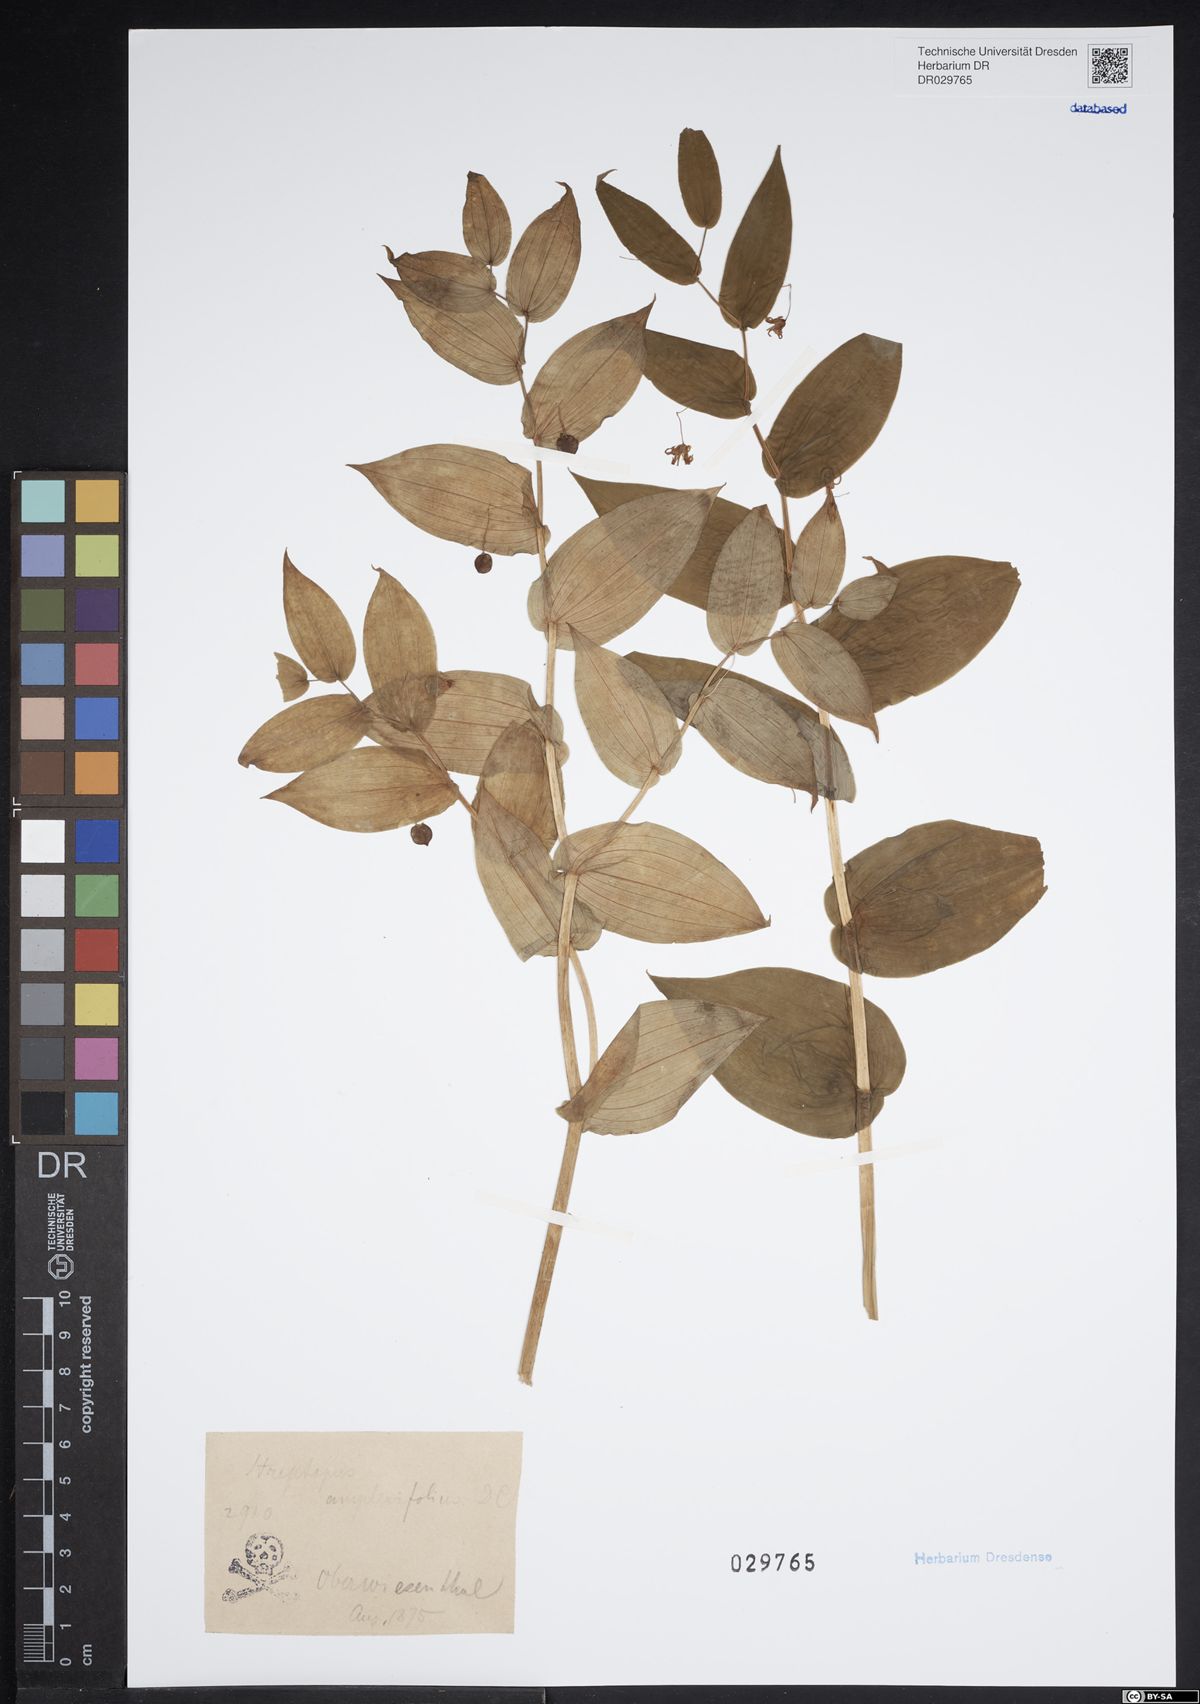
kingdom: Plantae
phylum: Tracheophyta
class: Liliopsida
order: Liliales
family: Liliaceae
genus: Streptopus
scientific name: Streptopus amplexifolius
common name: Clasp twisted stalk
